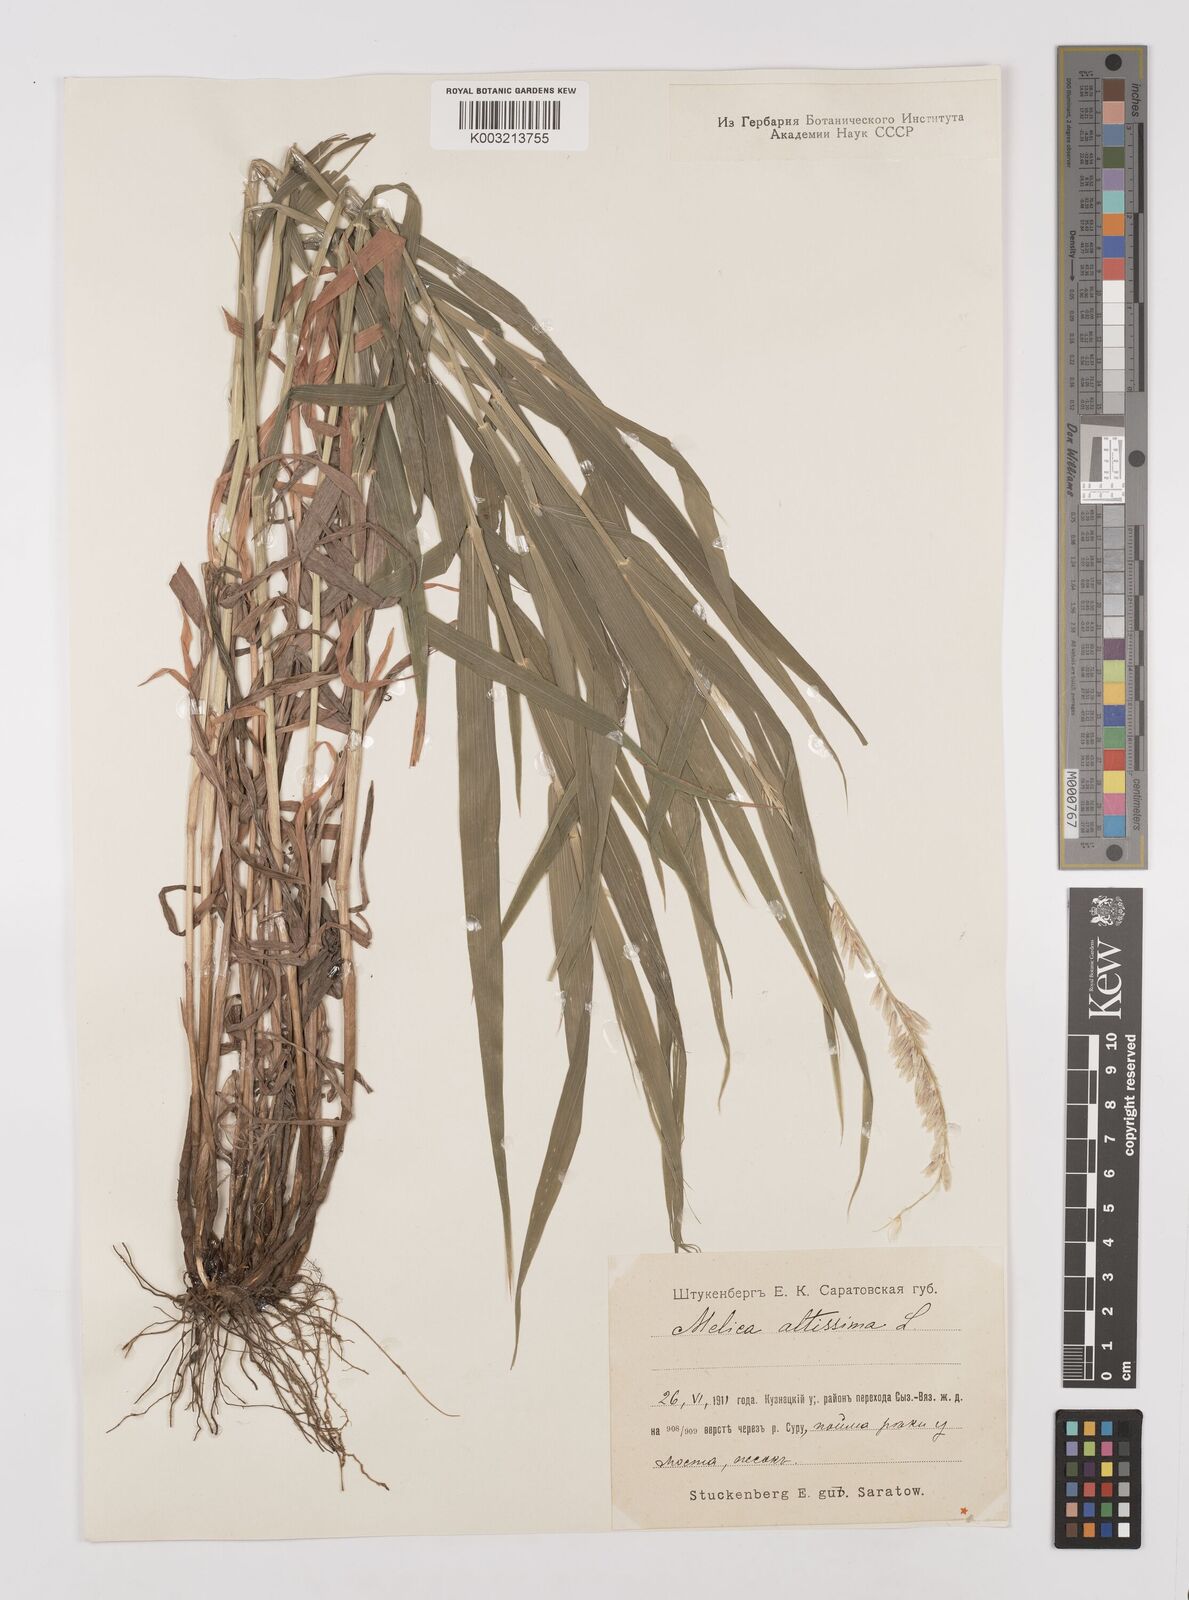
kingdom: Plantae
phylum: Tracheophyta
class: Liliopsida
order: Poales
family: Poaceae
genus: Melica
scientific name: Melica
